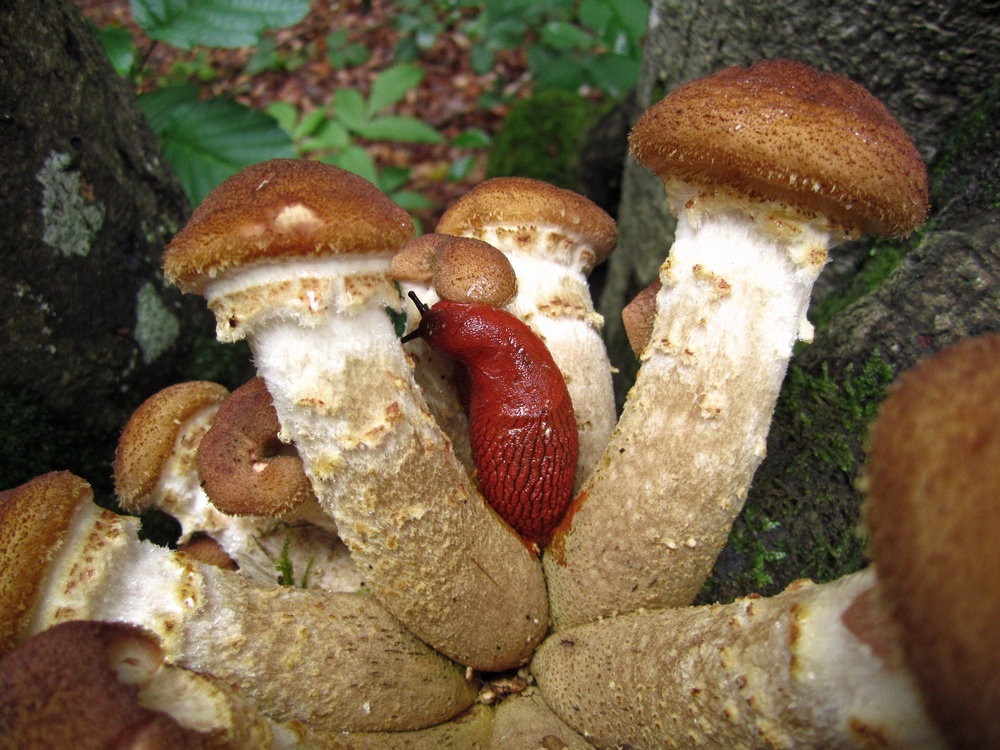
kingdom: Fungi
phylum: Basidiomycota
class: Agaricomycetes
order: Agaricales
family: Physalacriaceae
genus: Armillaria
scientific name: Armillaria lutea
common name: køllestokket honningsvamp
